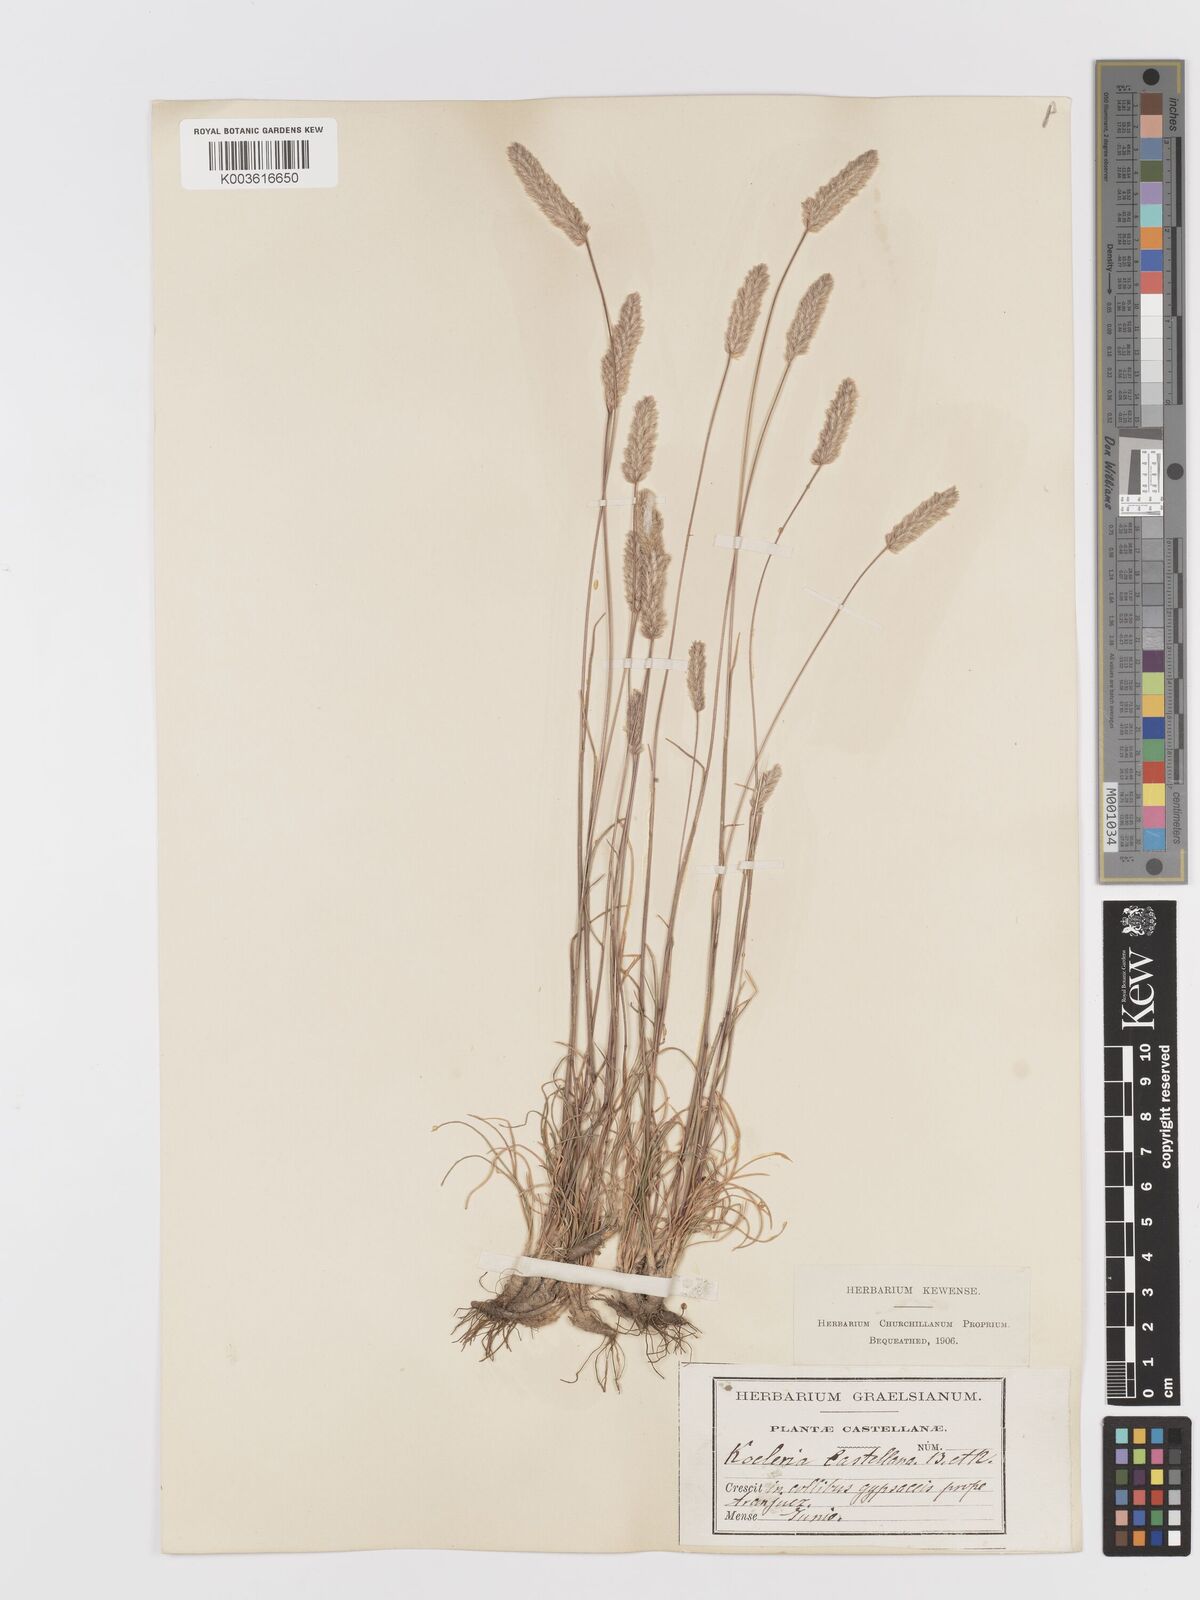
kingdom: Plantae
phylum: Tracheophyta
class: Liliopsida
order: Poales
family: Poaceae
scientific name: Poaceae
